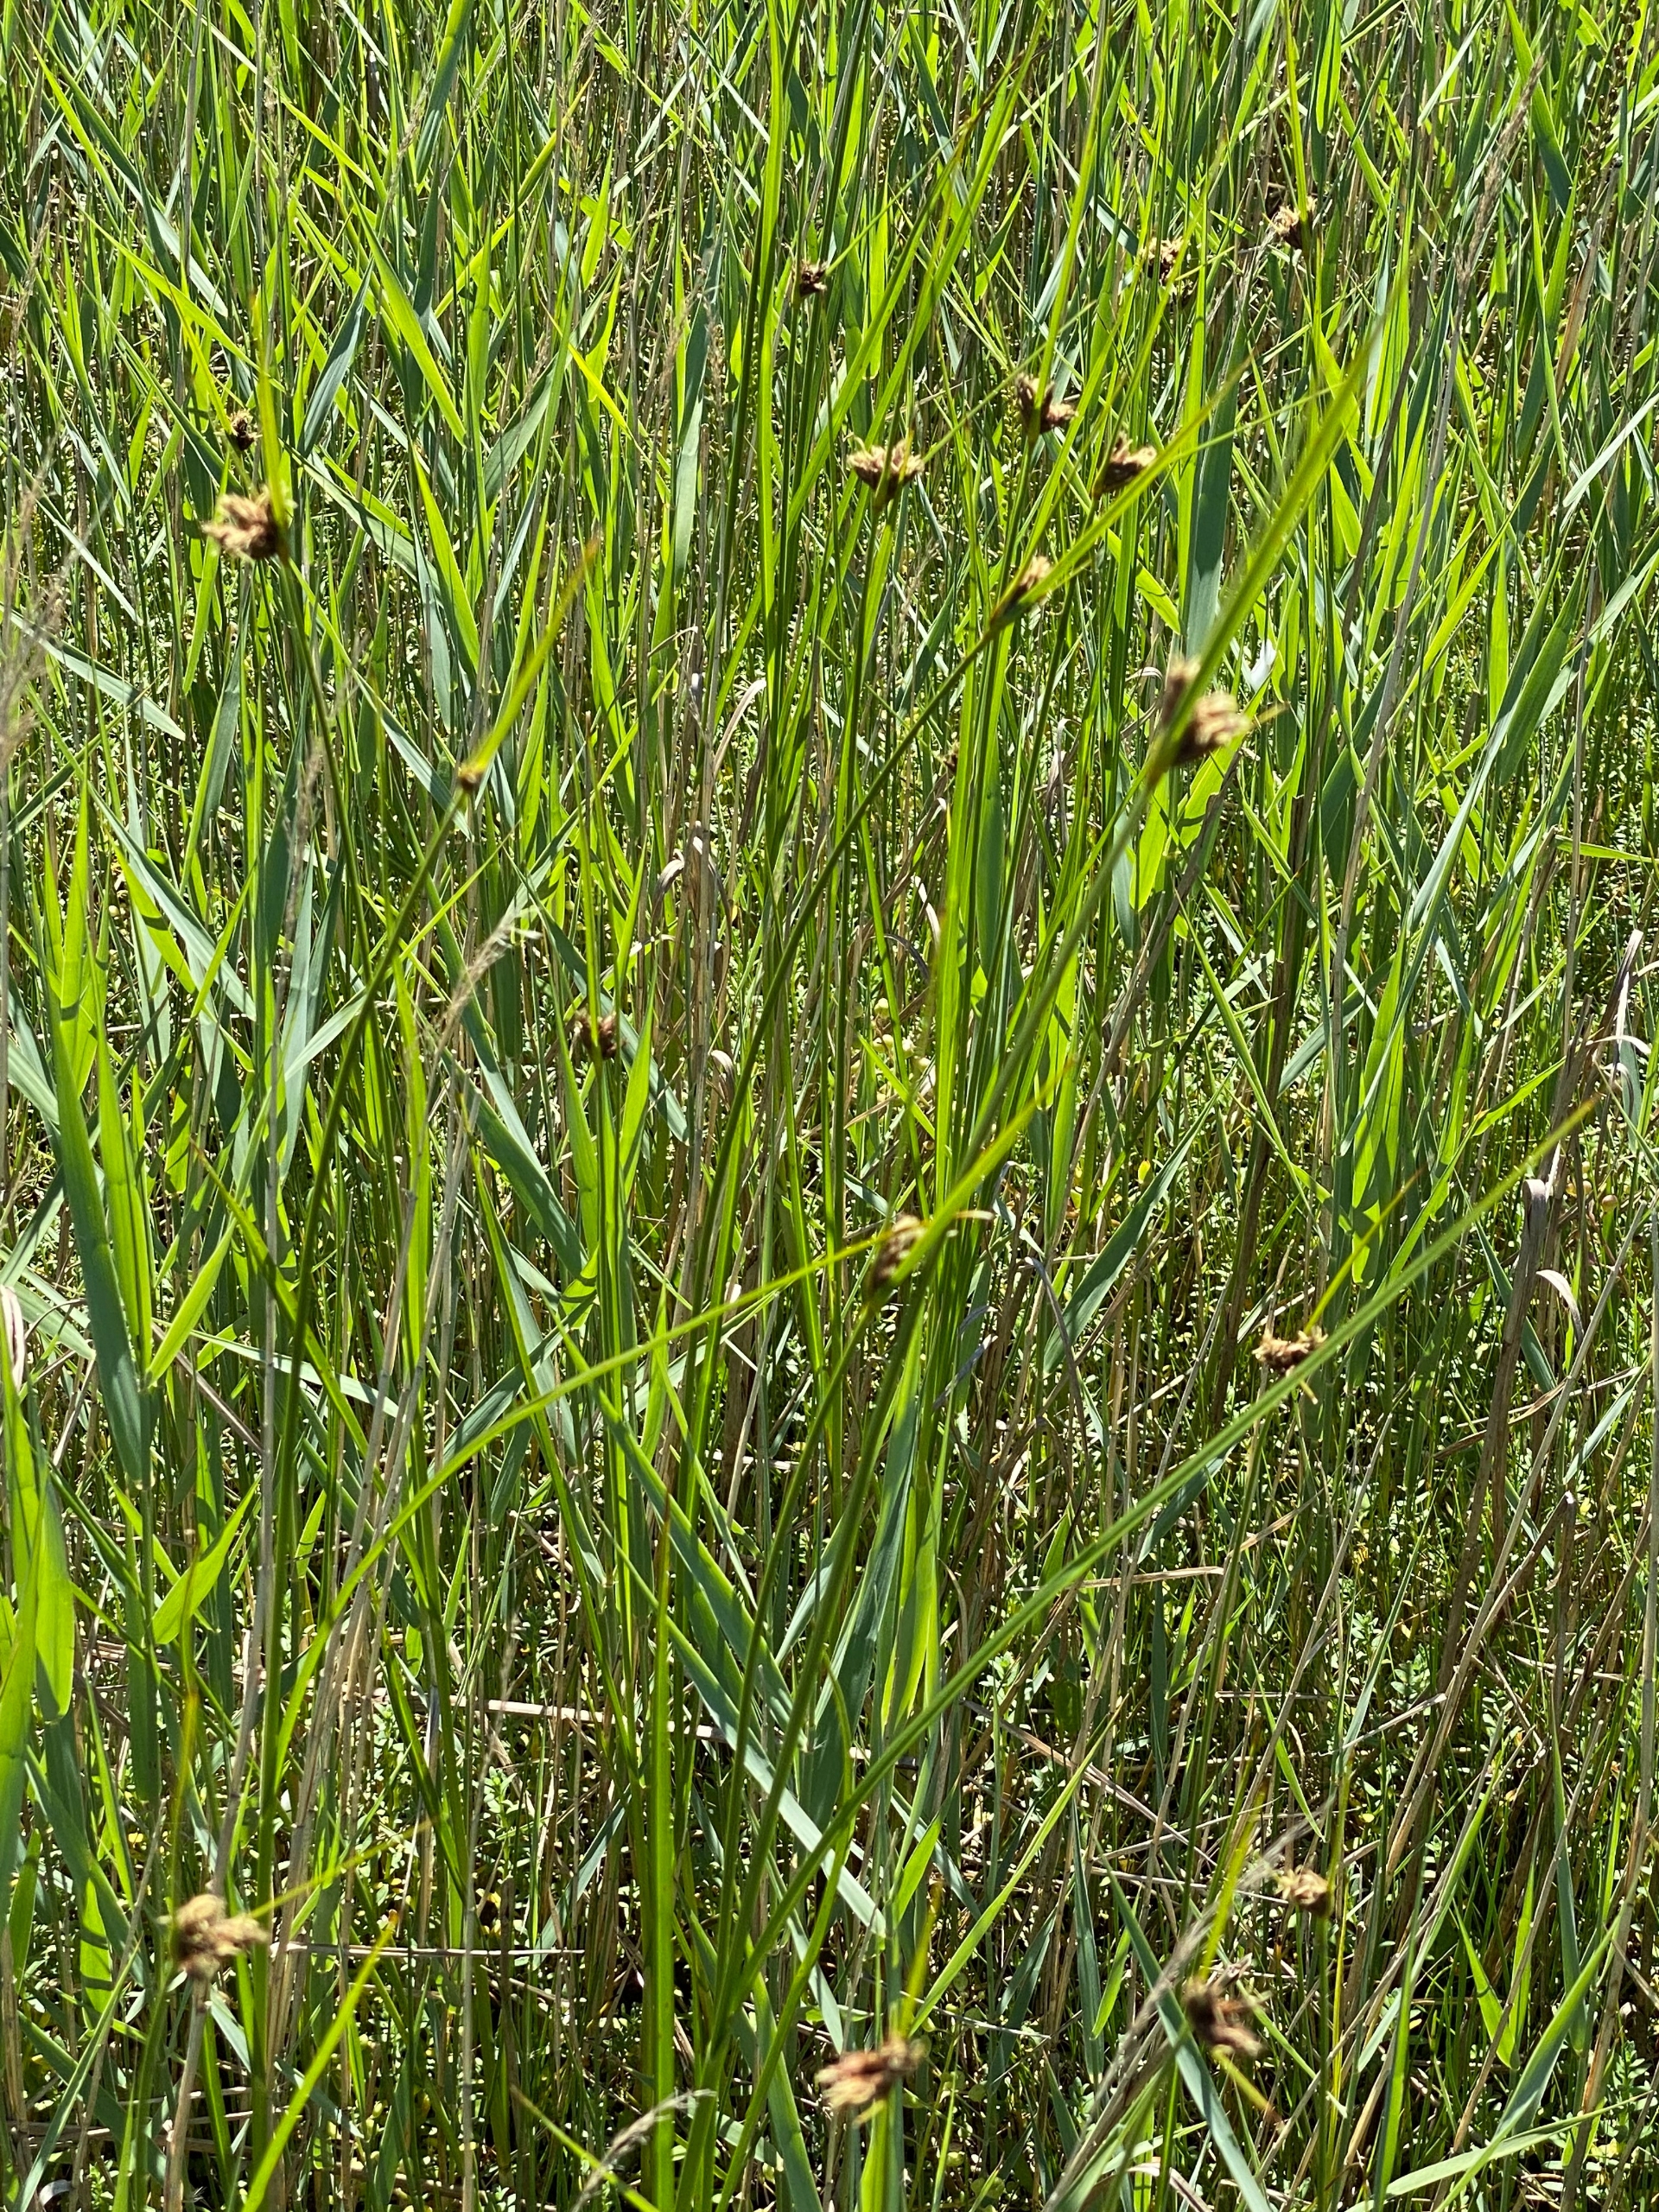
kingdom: Plantae
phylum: Tracheophyta
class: Liliopsida
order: Poales
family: Cyperaceae
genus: Bolboschoenus
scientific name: Bolboschoenus maritimus
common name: Strand-kogleaks
